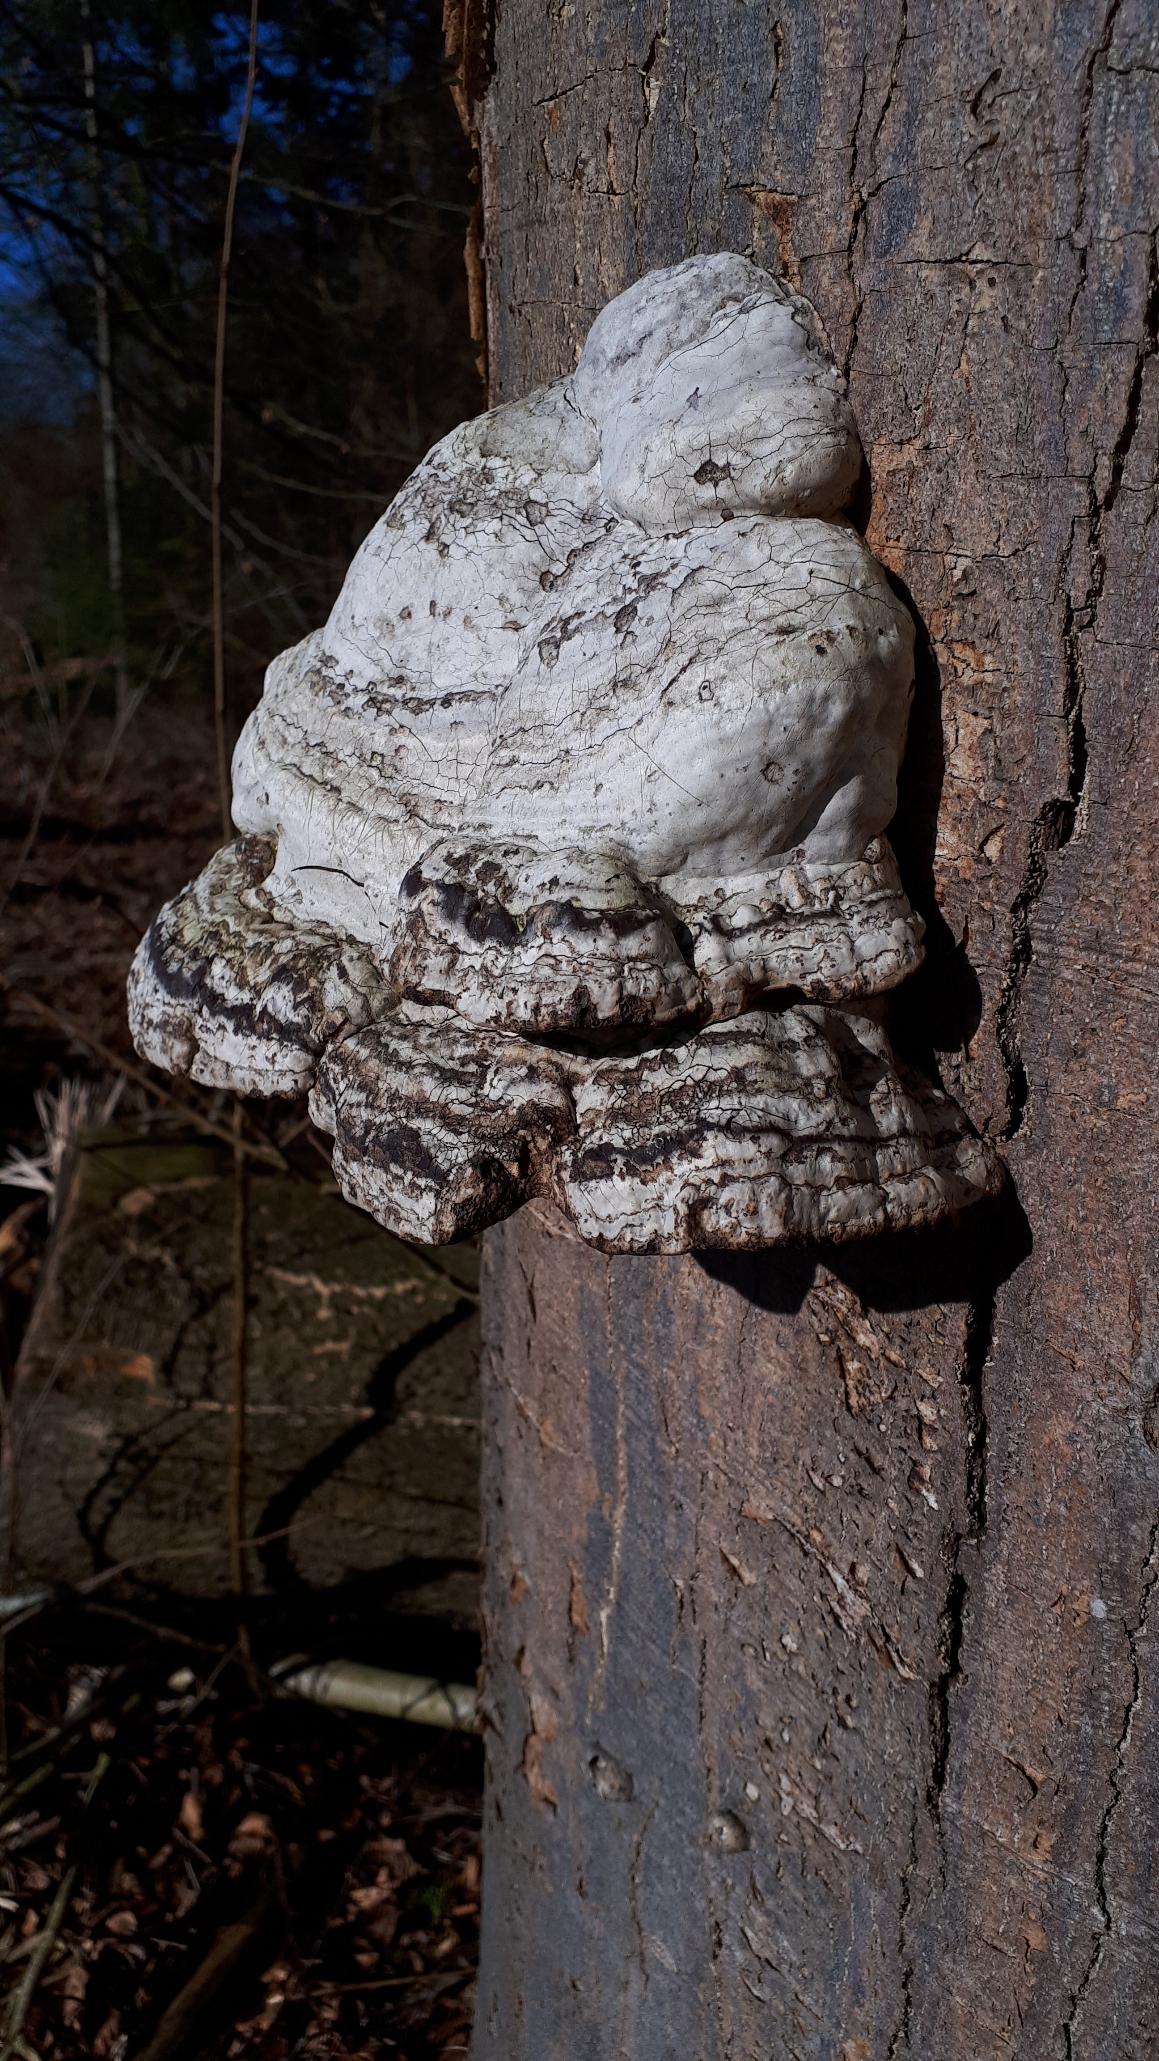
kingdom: Fungi
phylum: Basidiomycota
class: Agaricomycetes
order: Polyporales
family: Polyporaceae
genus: Fomes
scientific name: Fomes fomentarius
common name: Tøndersvamp
